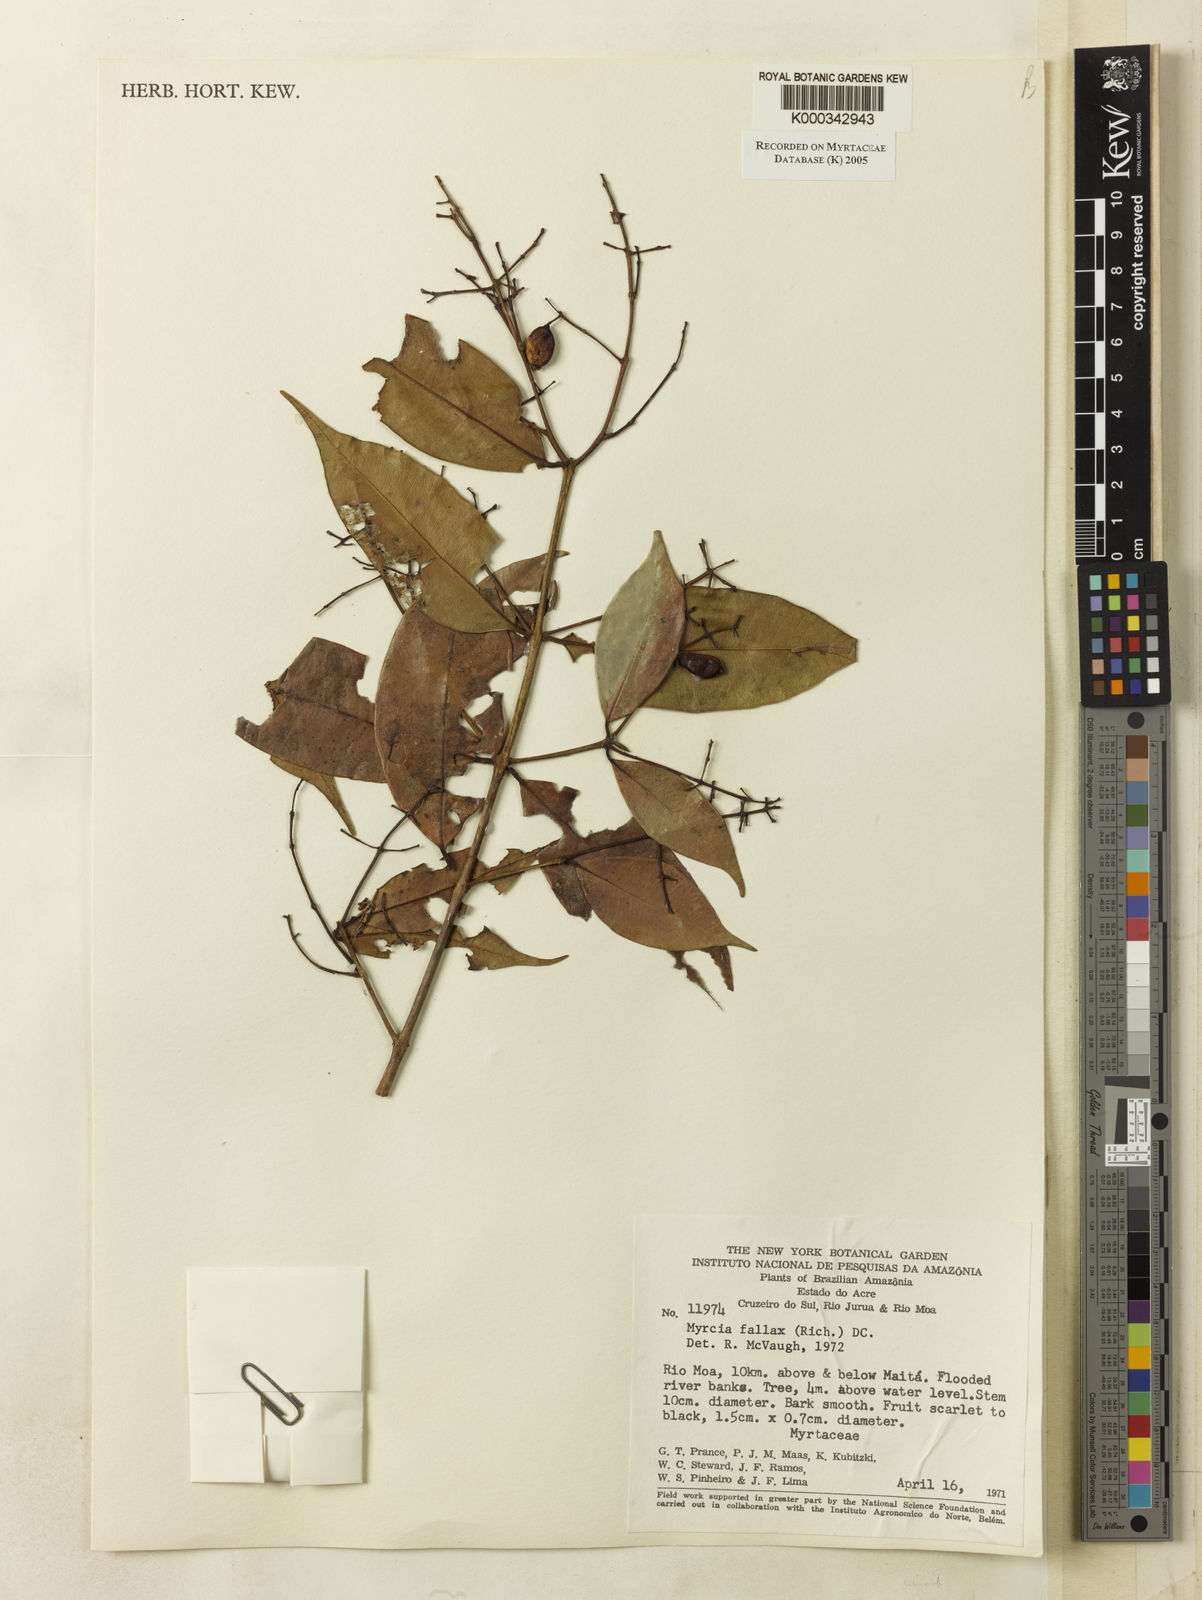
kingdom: Plantae
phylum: Tracheophyta
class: Magnoliopsida
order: Myrtales
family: Myrtaceae
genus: Myrcia
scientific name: Myrcia splendens
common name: Surinam cherry
